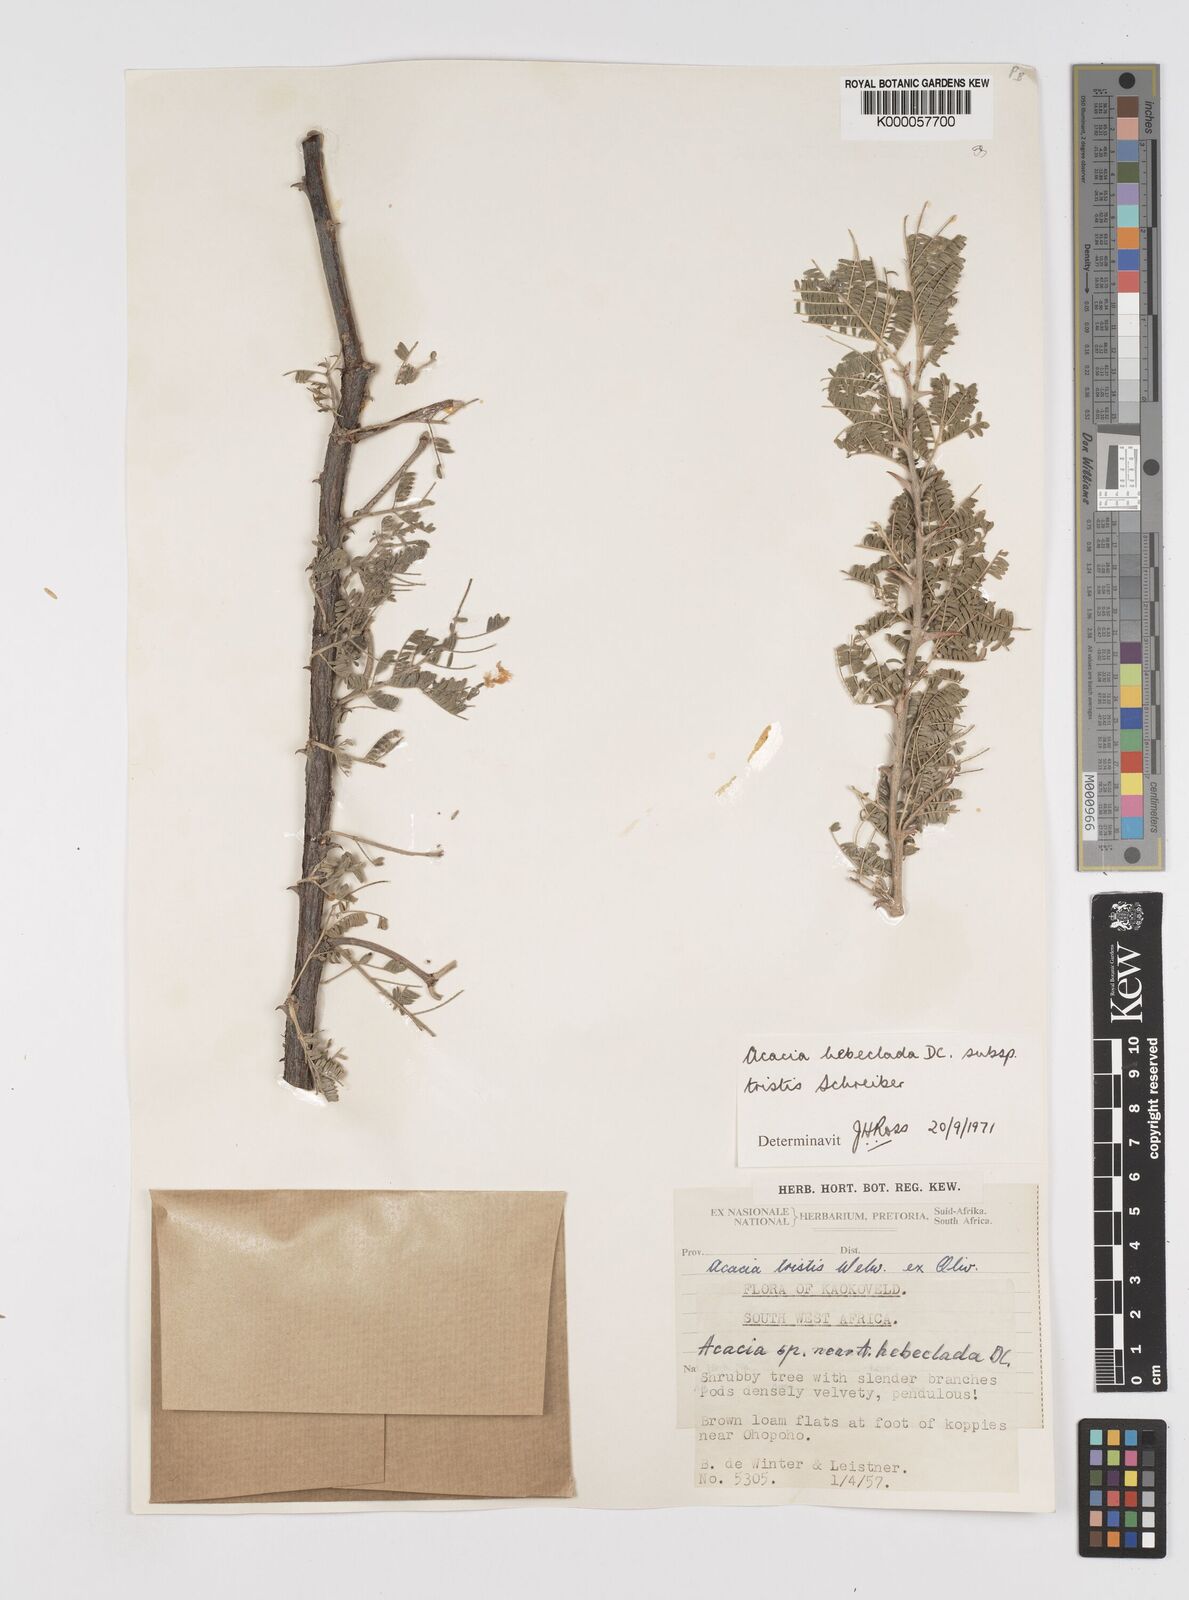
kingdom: Plantae
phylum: Tracheophyta
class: Magnoliopsida
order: Fabales
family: Fabaceae
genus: Vachellia
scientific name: Vachellia hebeclada
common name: Candle thorn
